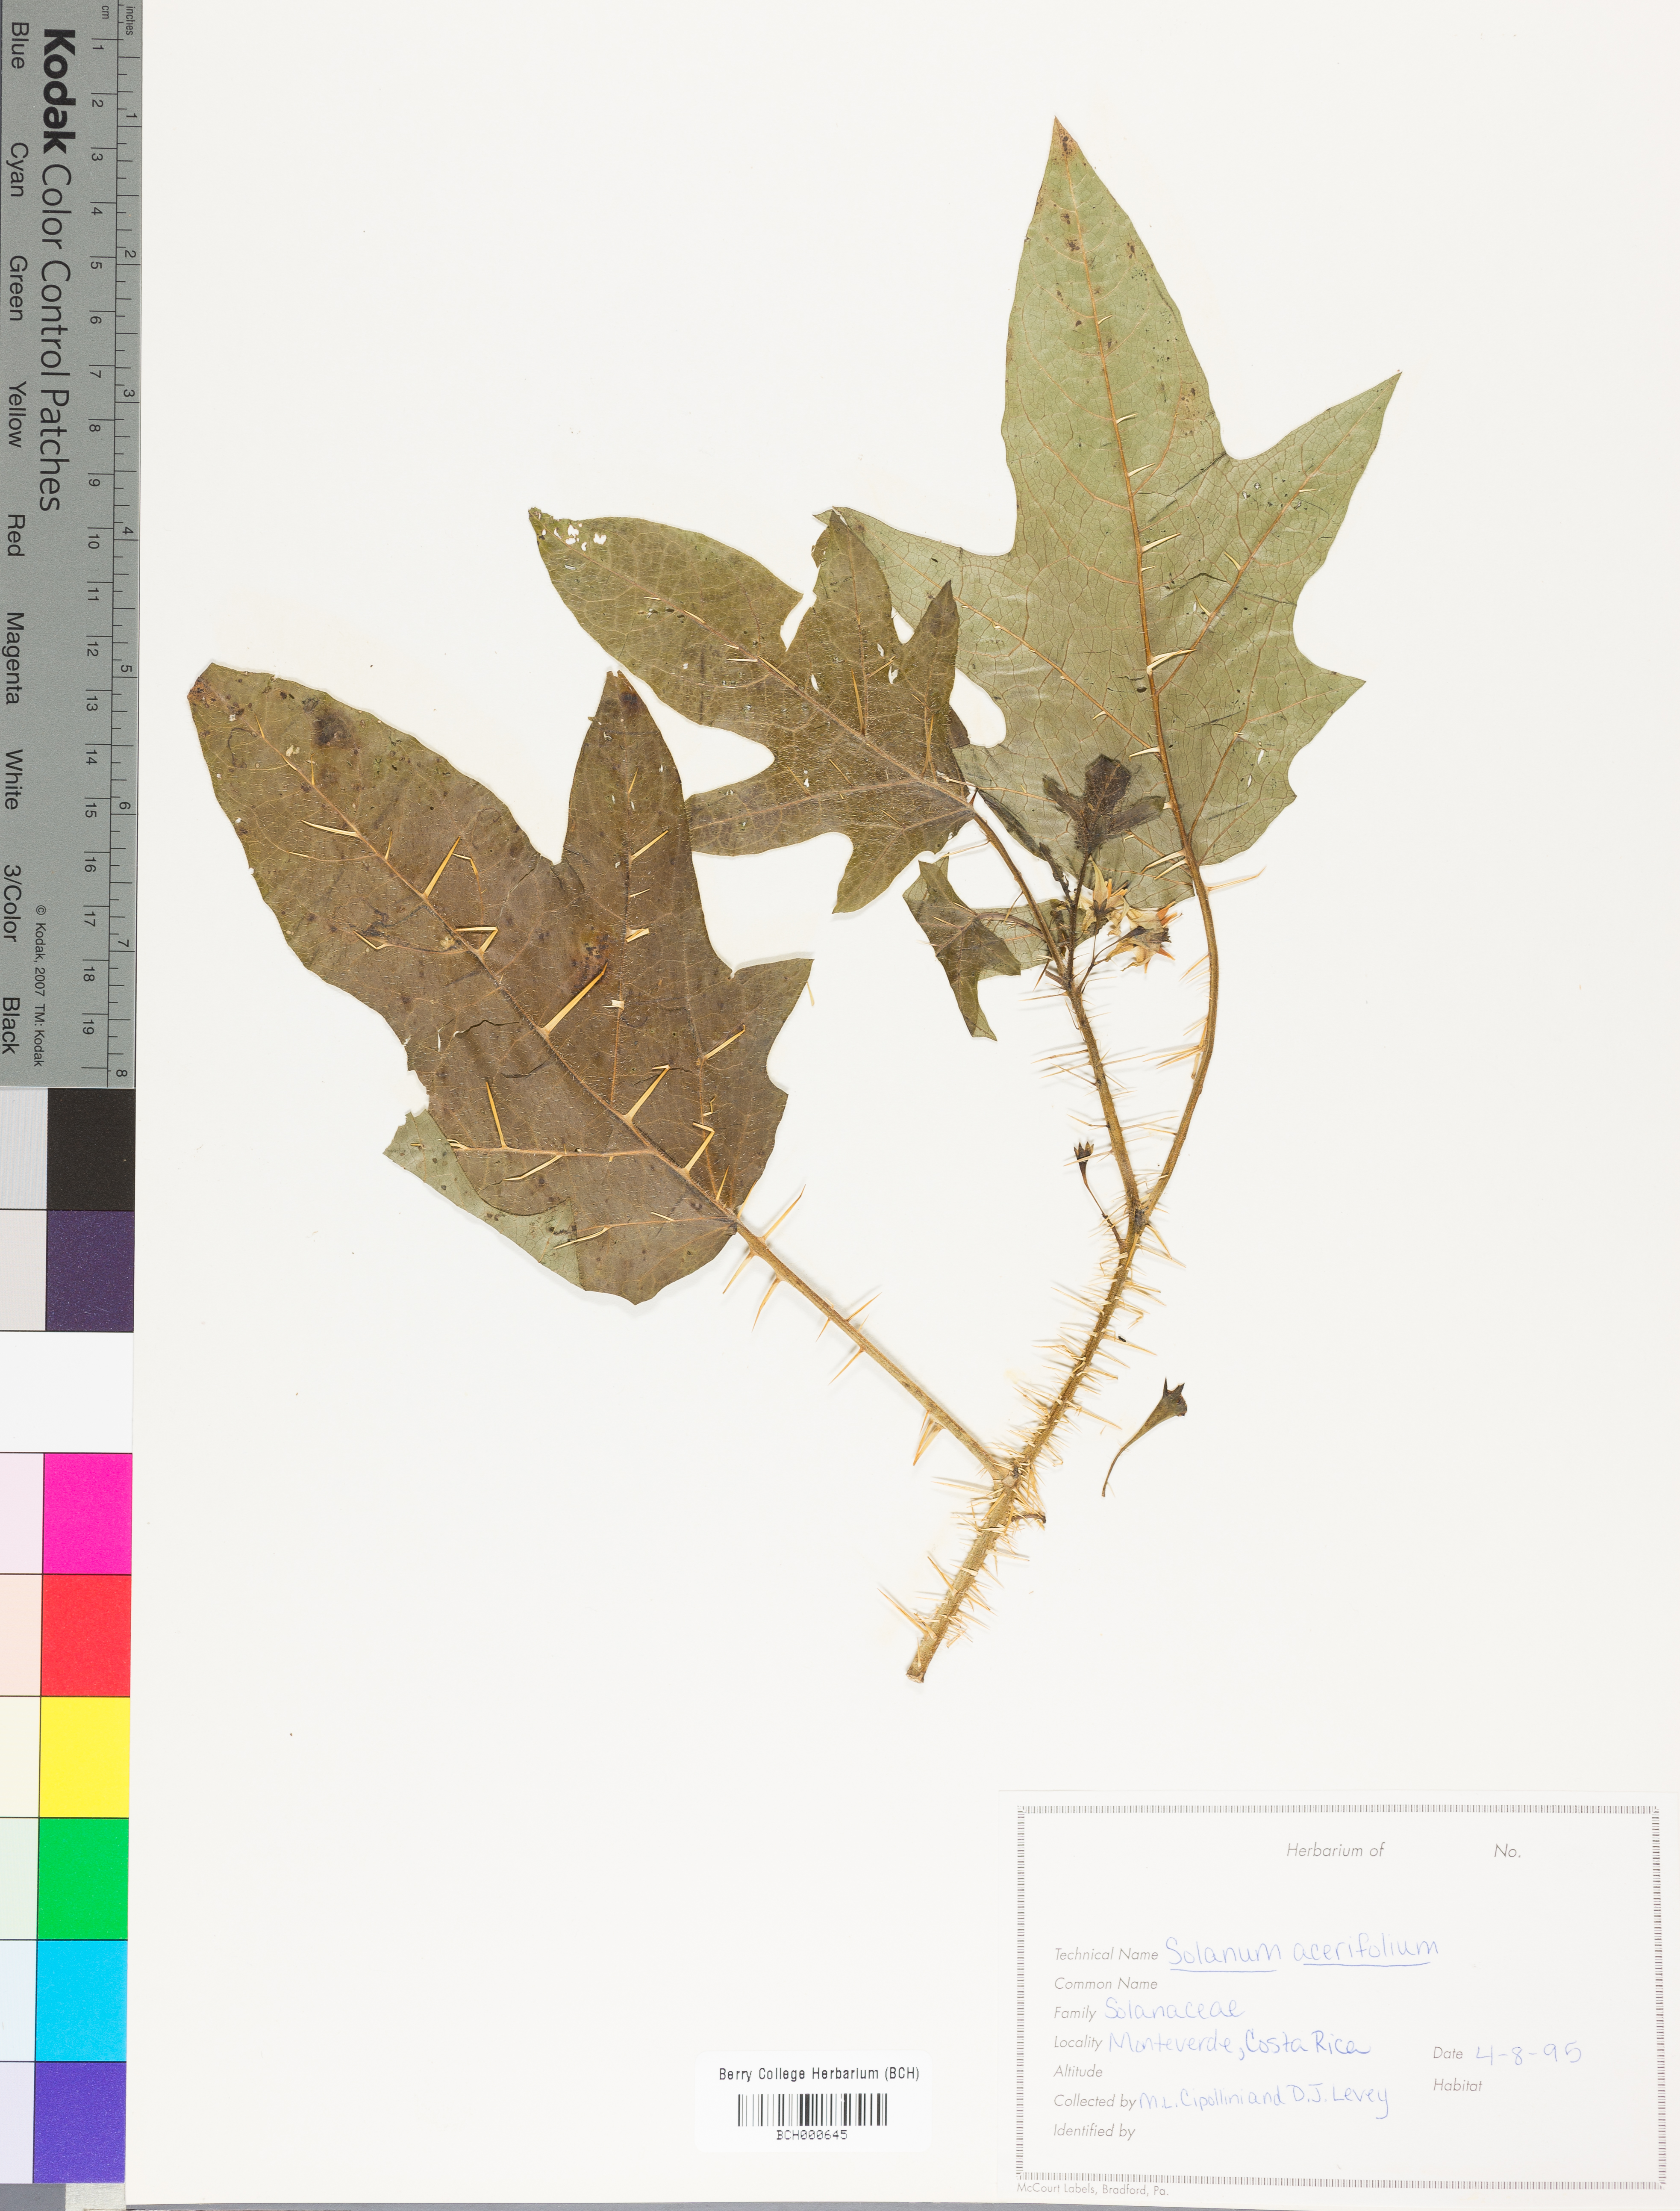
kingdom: Plantae
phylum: Tracheophyta
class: Magnoliopsida
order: Solanales
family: Solanaceae
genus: Solanum
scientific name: Solanum acerifolium
